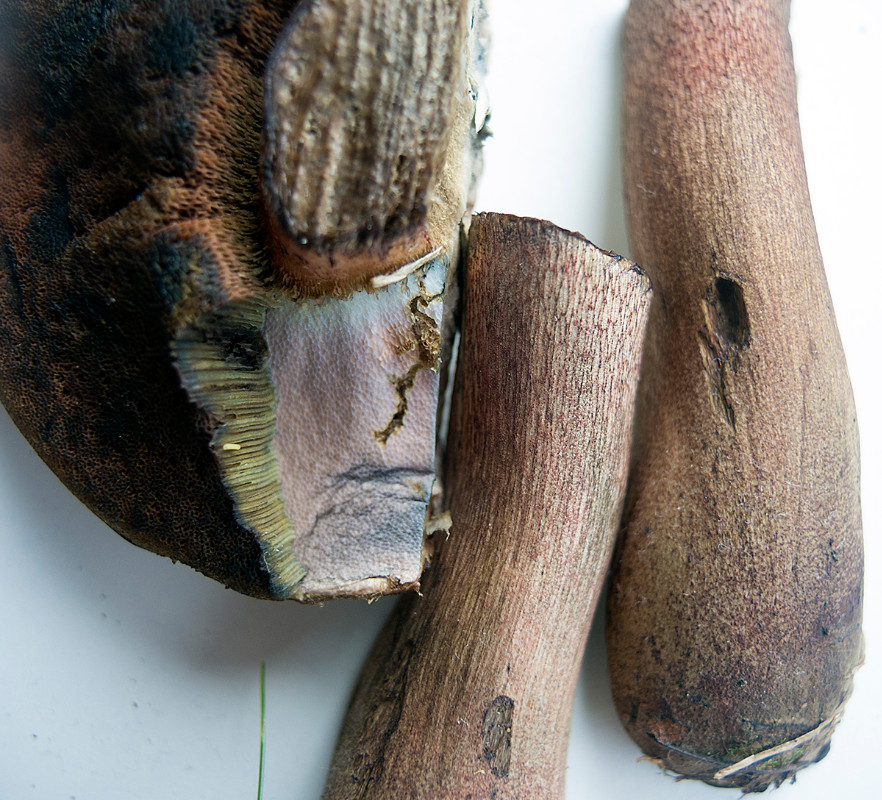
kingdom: Fungi
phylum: Basidiomycota
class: Agaricomycetes
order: Boletales
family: Boletaceae
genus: Suillellus
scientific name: Suillellus luridus
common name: netstokket indigorørhat
